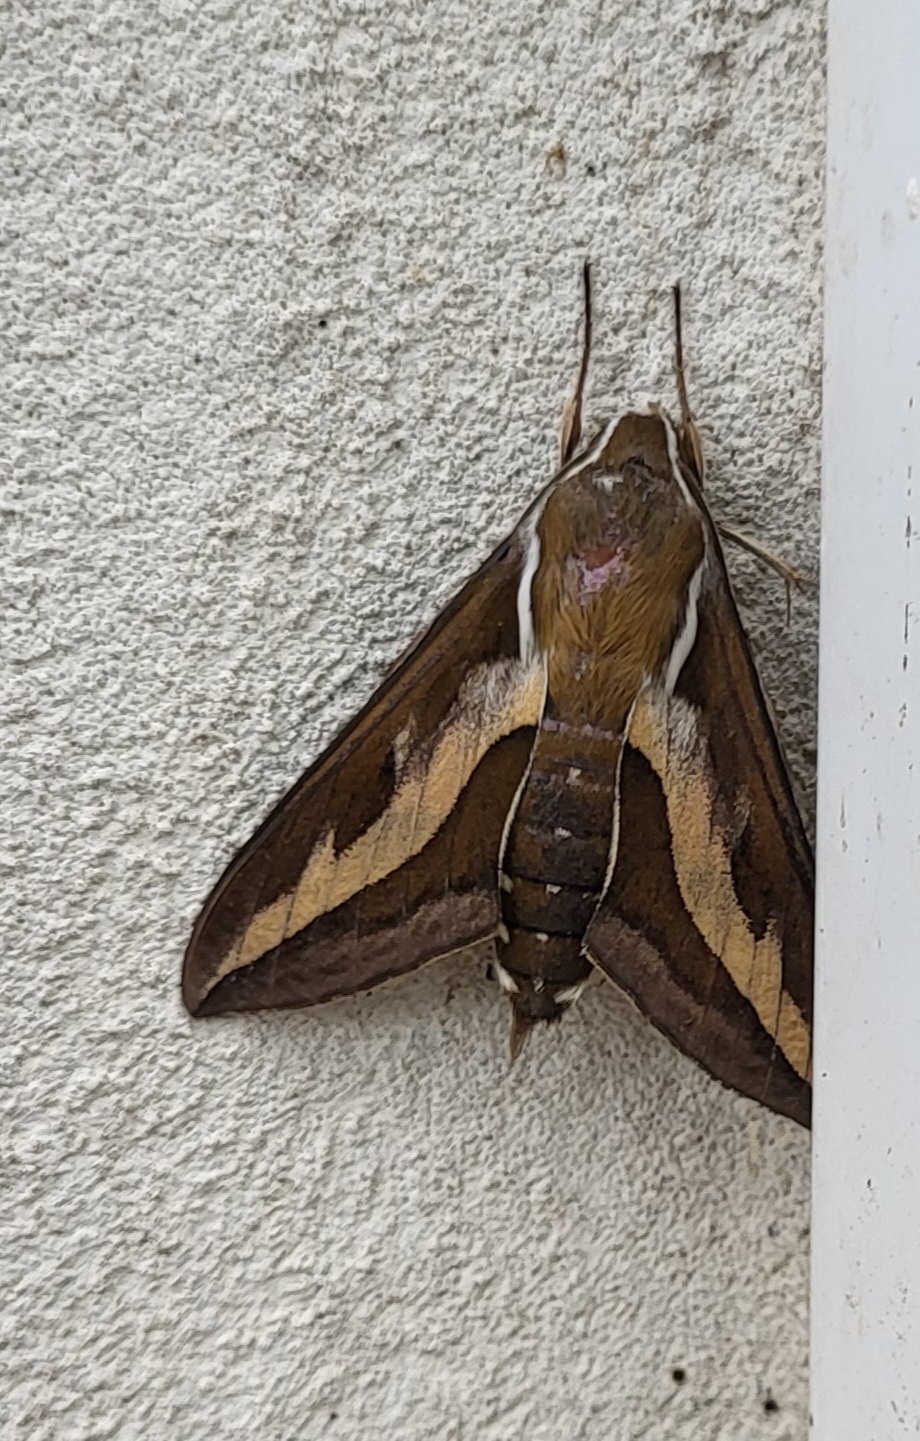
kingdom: Animalia
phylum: Arthropoda
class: Insecta
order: Lepidoptera
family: Sphingidae
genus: Hyles
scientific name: Hyles gallii
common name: Snerresværmer
